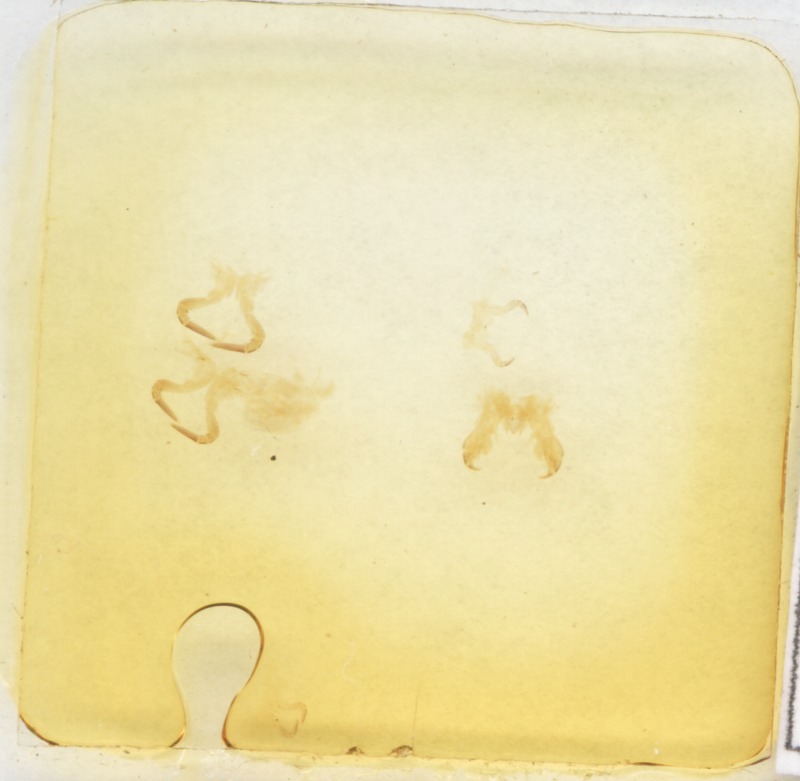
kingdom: Animalia
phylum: Arthropoda
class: Diplopoda
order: Glomerida
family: Glomeridae
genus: Glomeris
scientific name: Glomeris connexa
